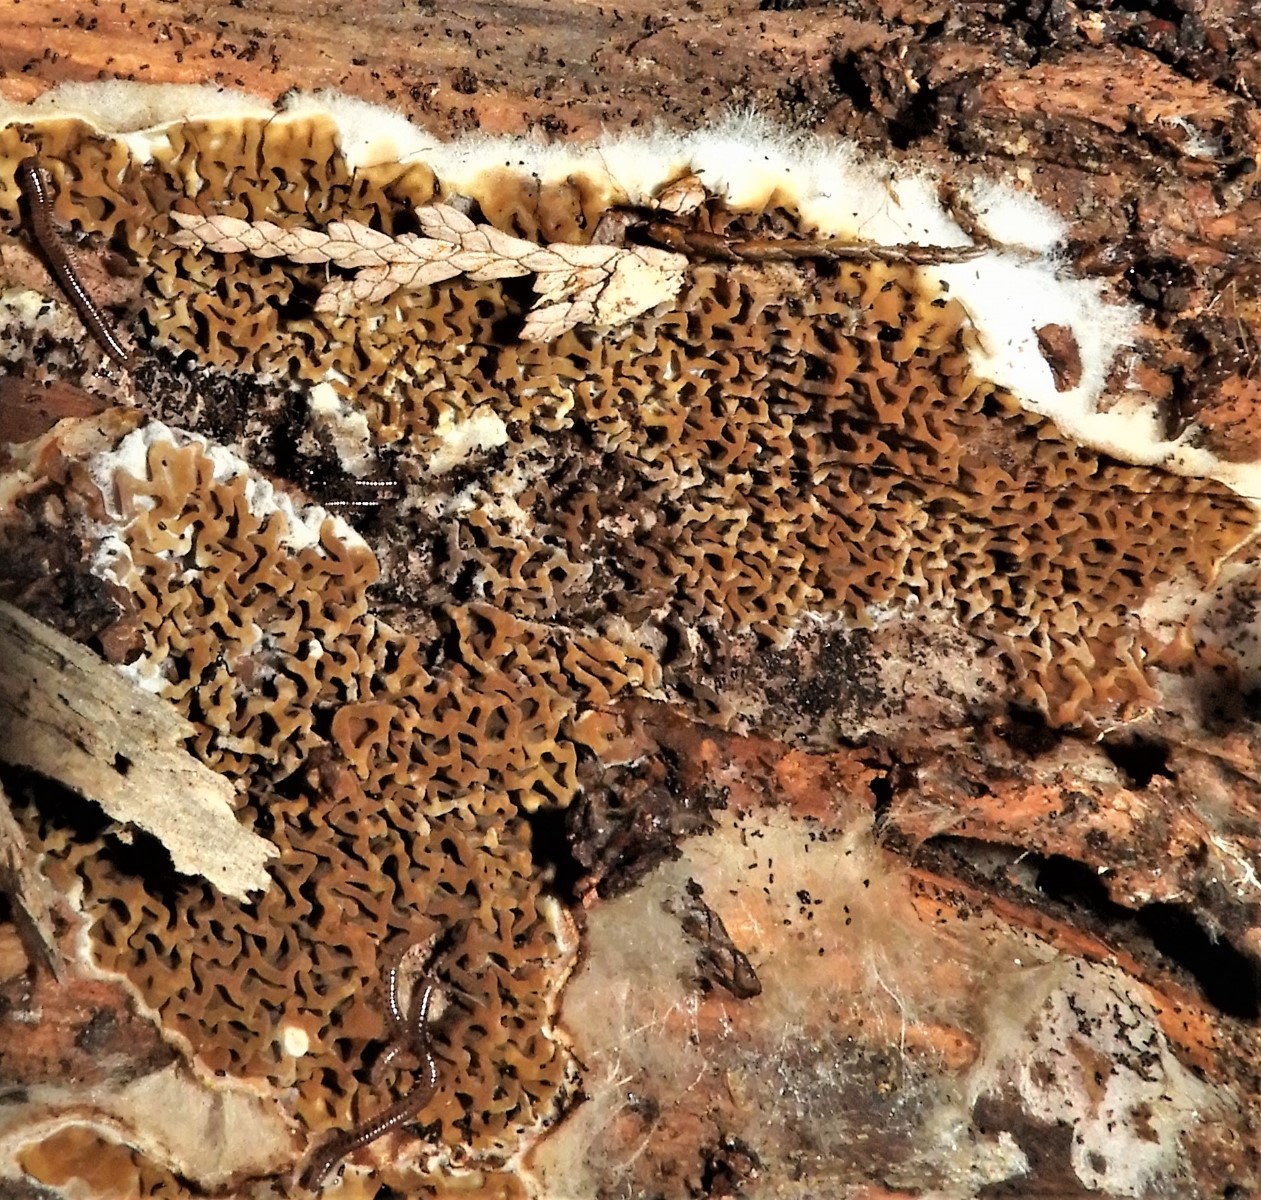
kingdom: Fungi
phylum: Basidiomycota
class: Agaricomycetes
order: Boletales
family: Serpulaceae
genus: Serpula
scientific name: Serpula himantioides
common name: tyndkødet hussvamp
